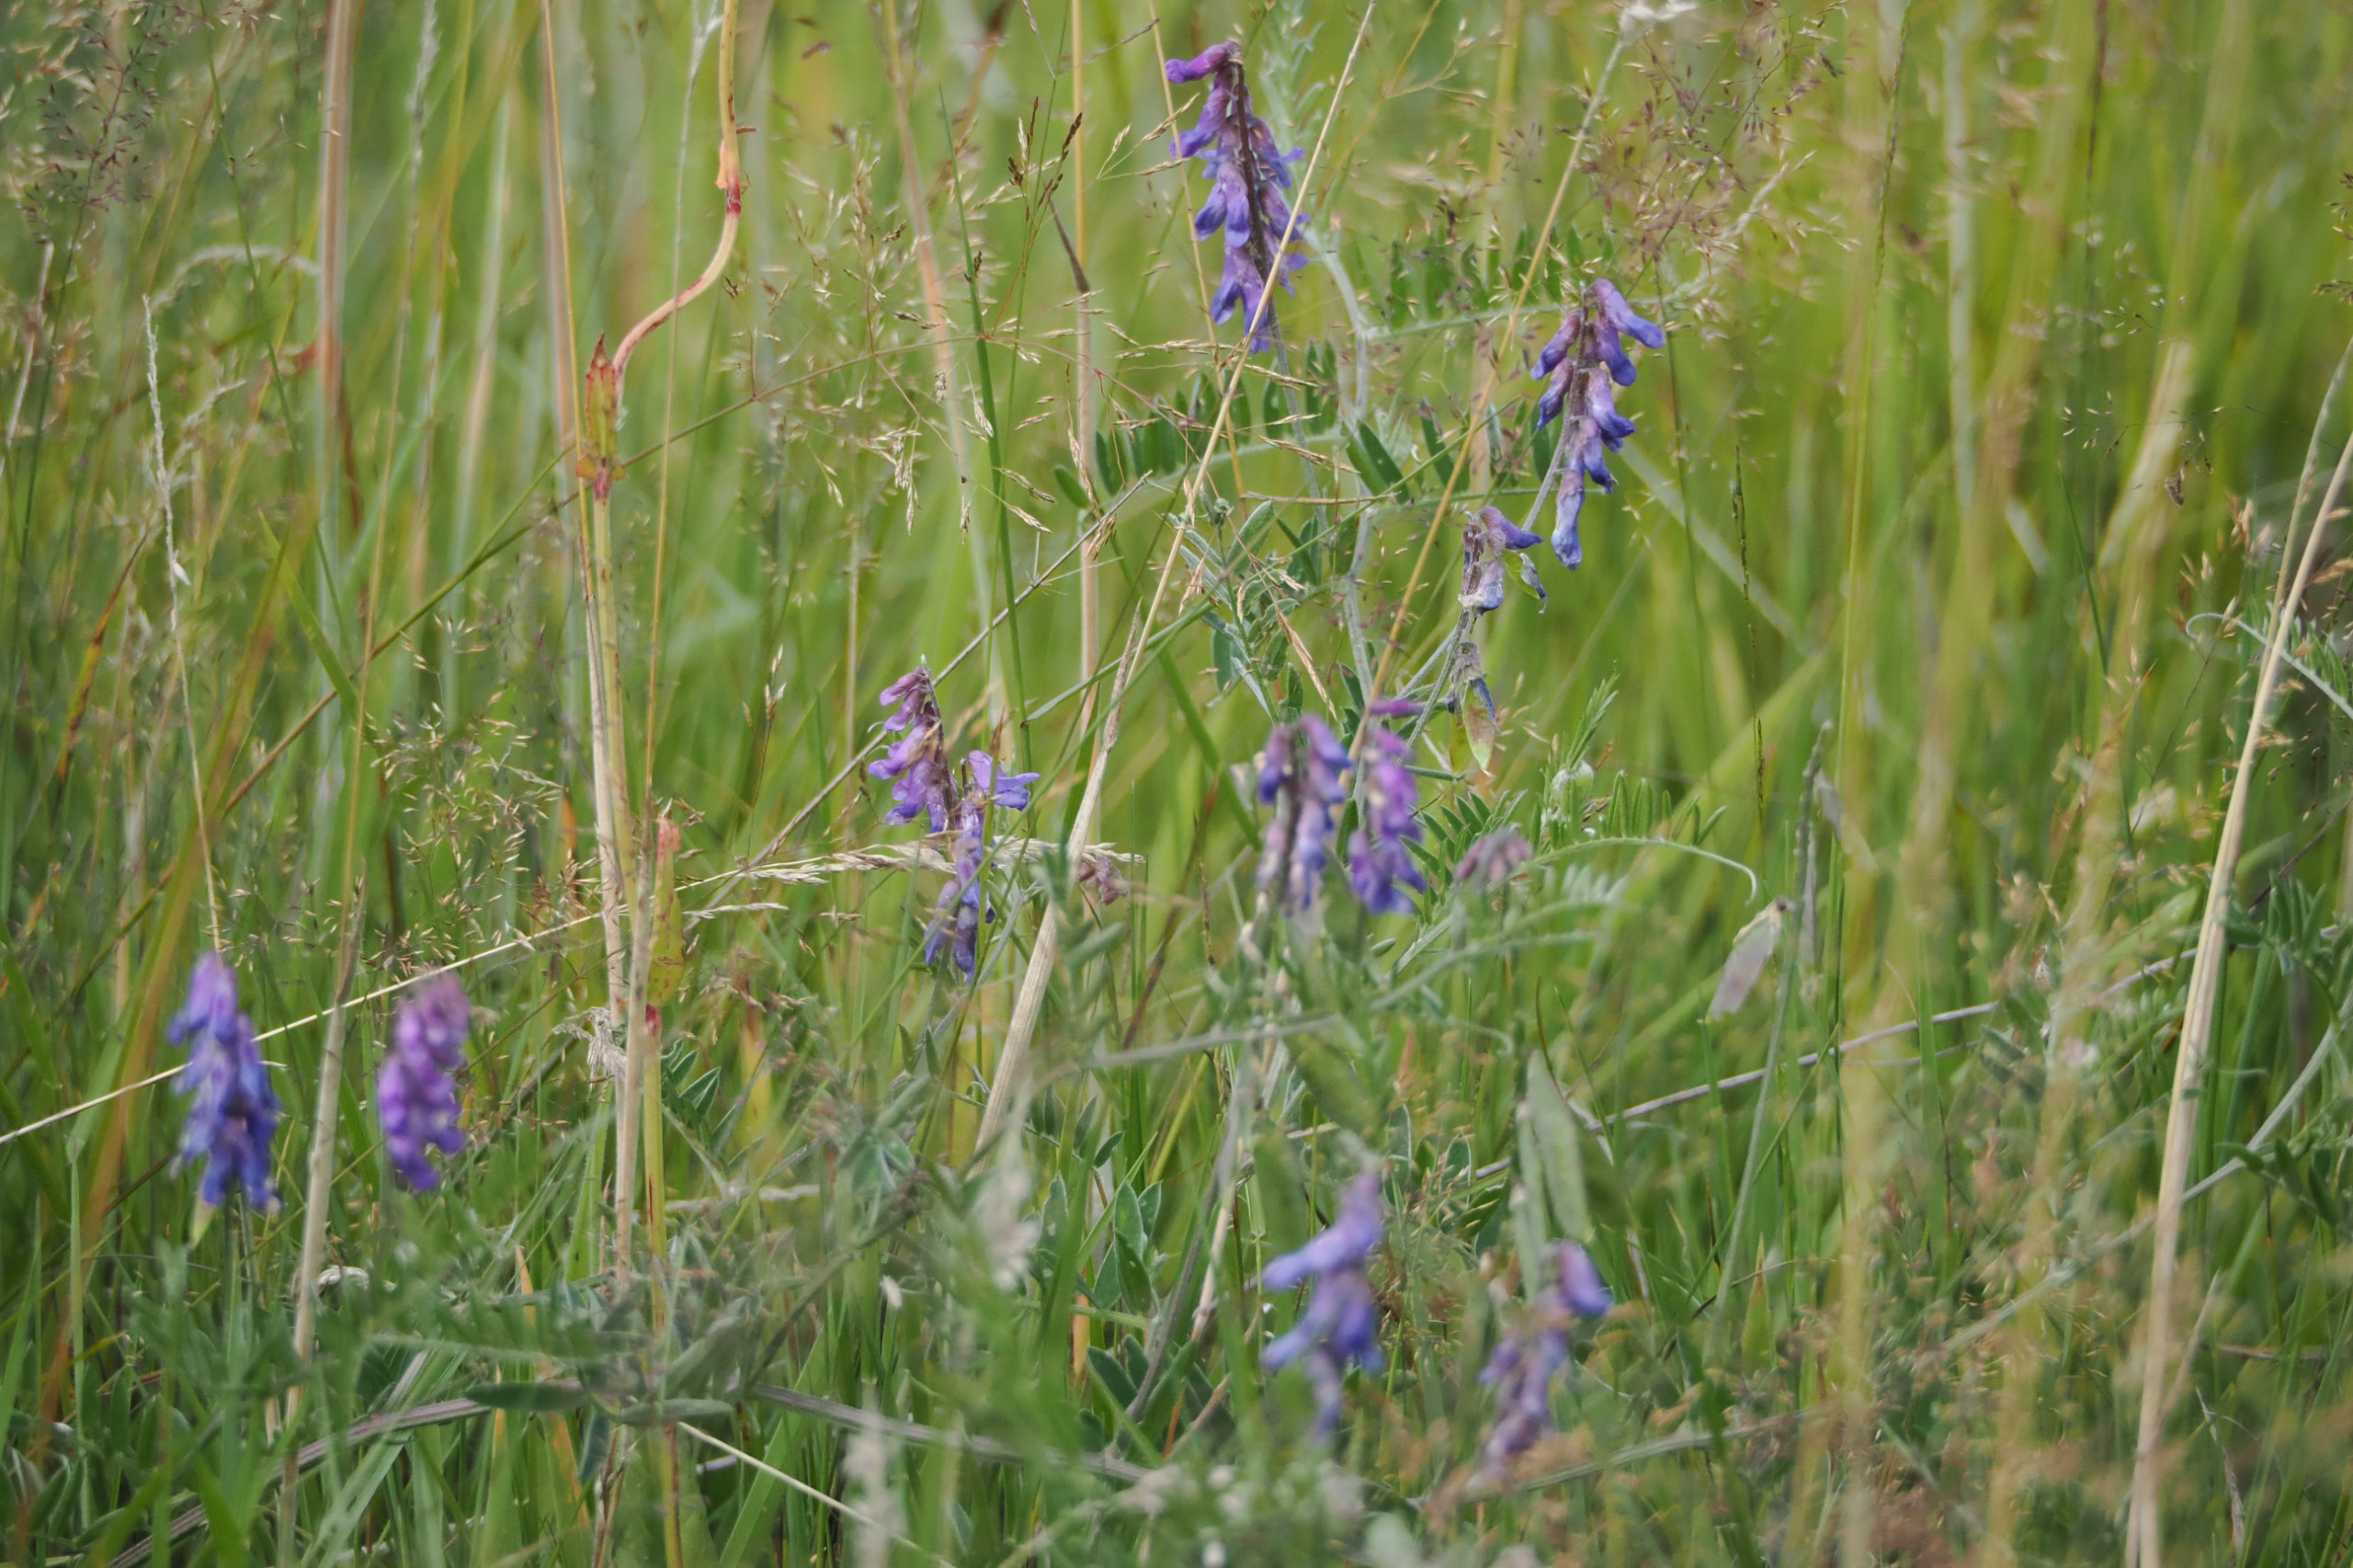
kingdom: Plantae
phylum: Tracheophyta
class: Magnoliopsida
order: Fabales
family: Fabaceae
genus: Vicia
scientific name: Vicia cracca
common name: Muse-vikke
